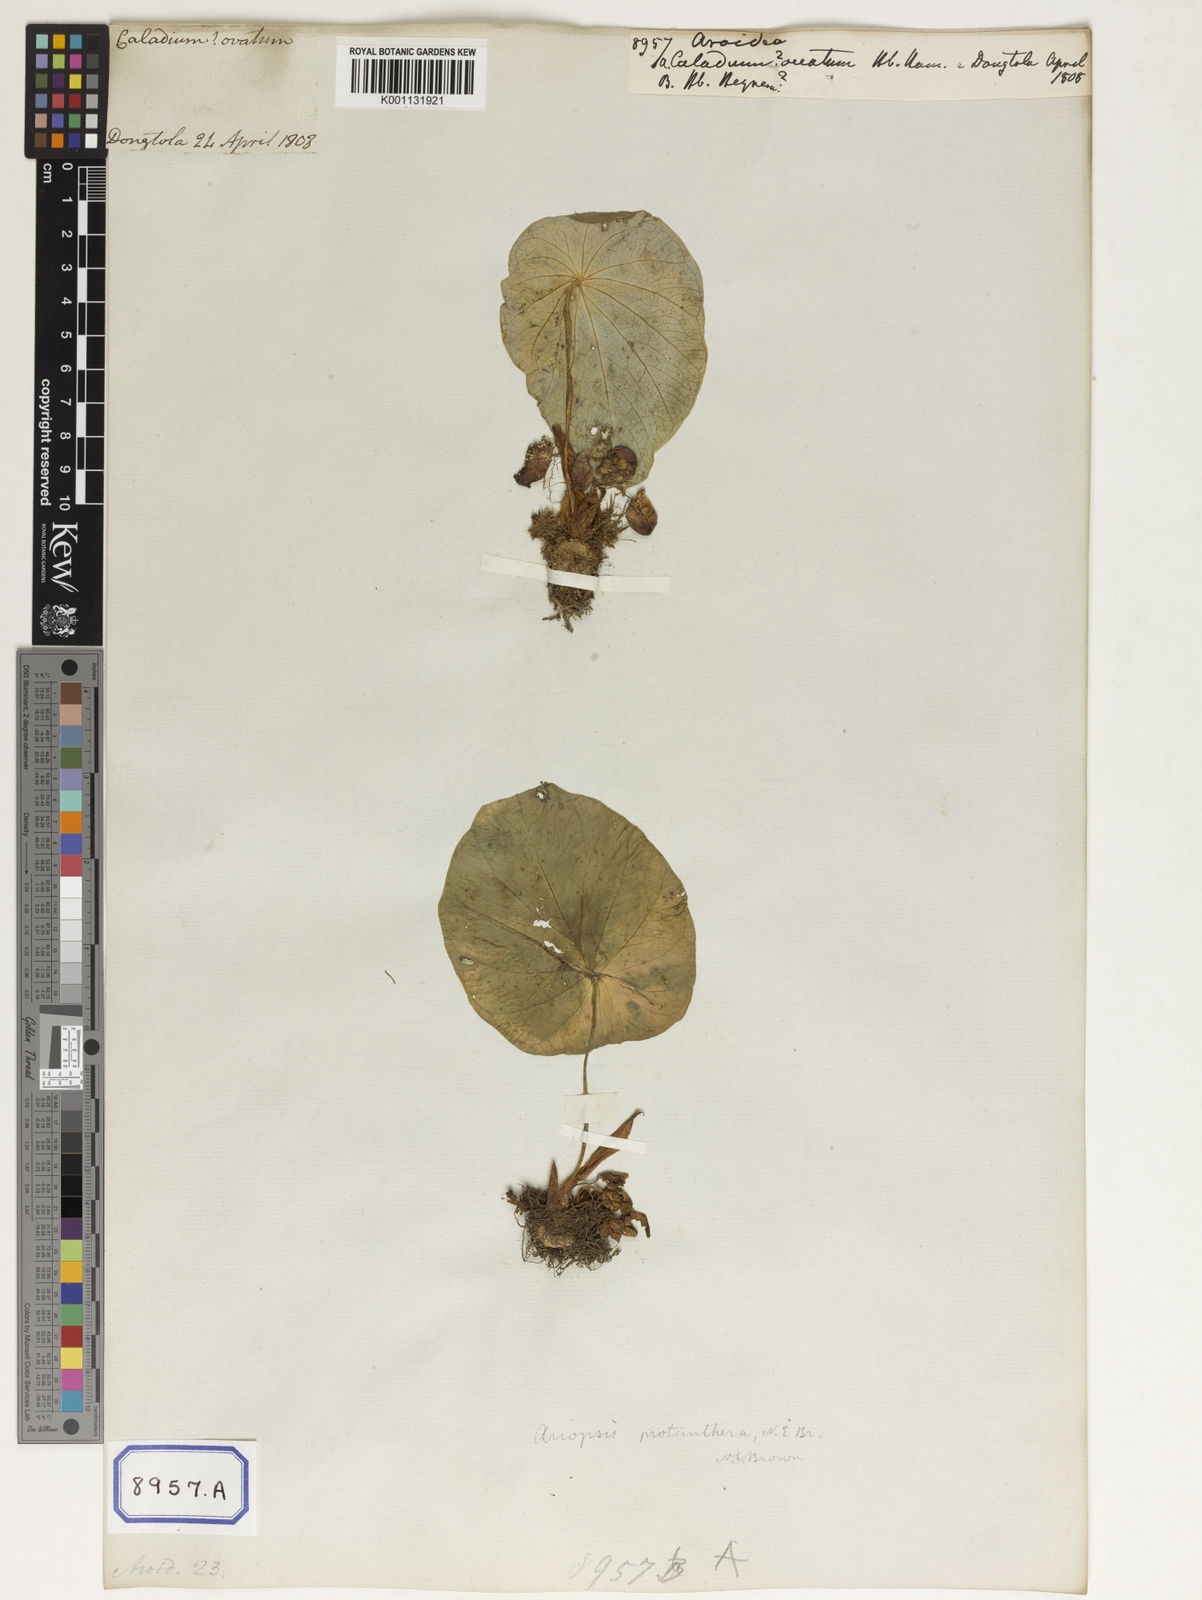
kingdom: Plantae
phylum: Tracheophyta
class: Liliopsida
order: Alismatales
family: Araceae
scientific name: Araceae
